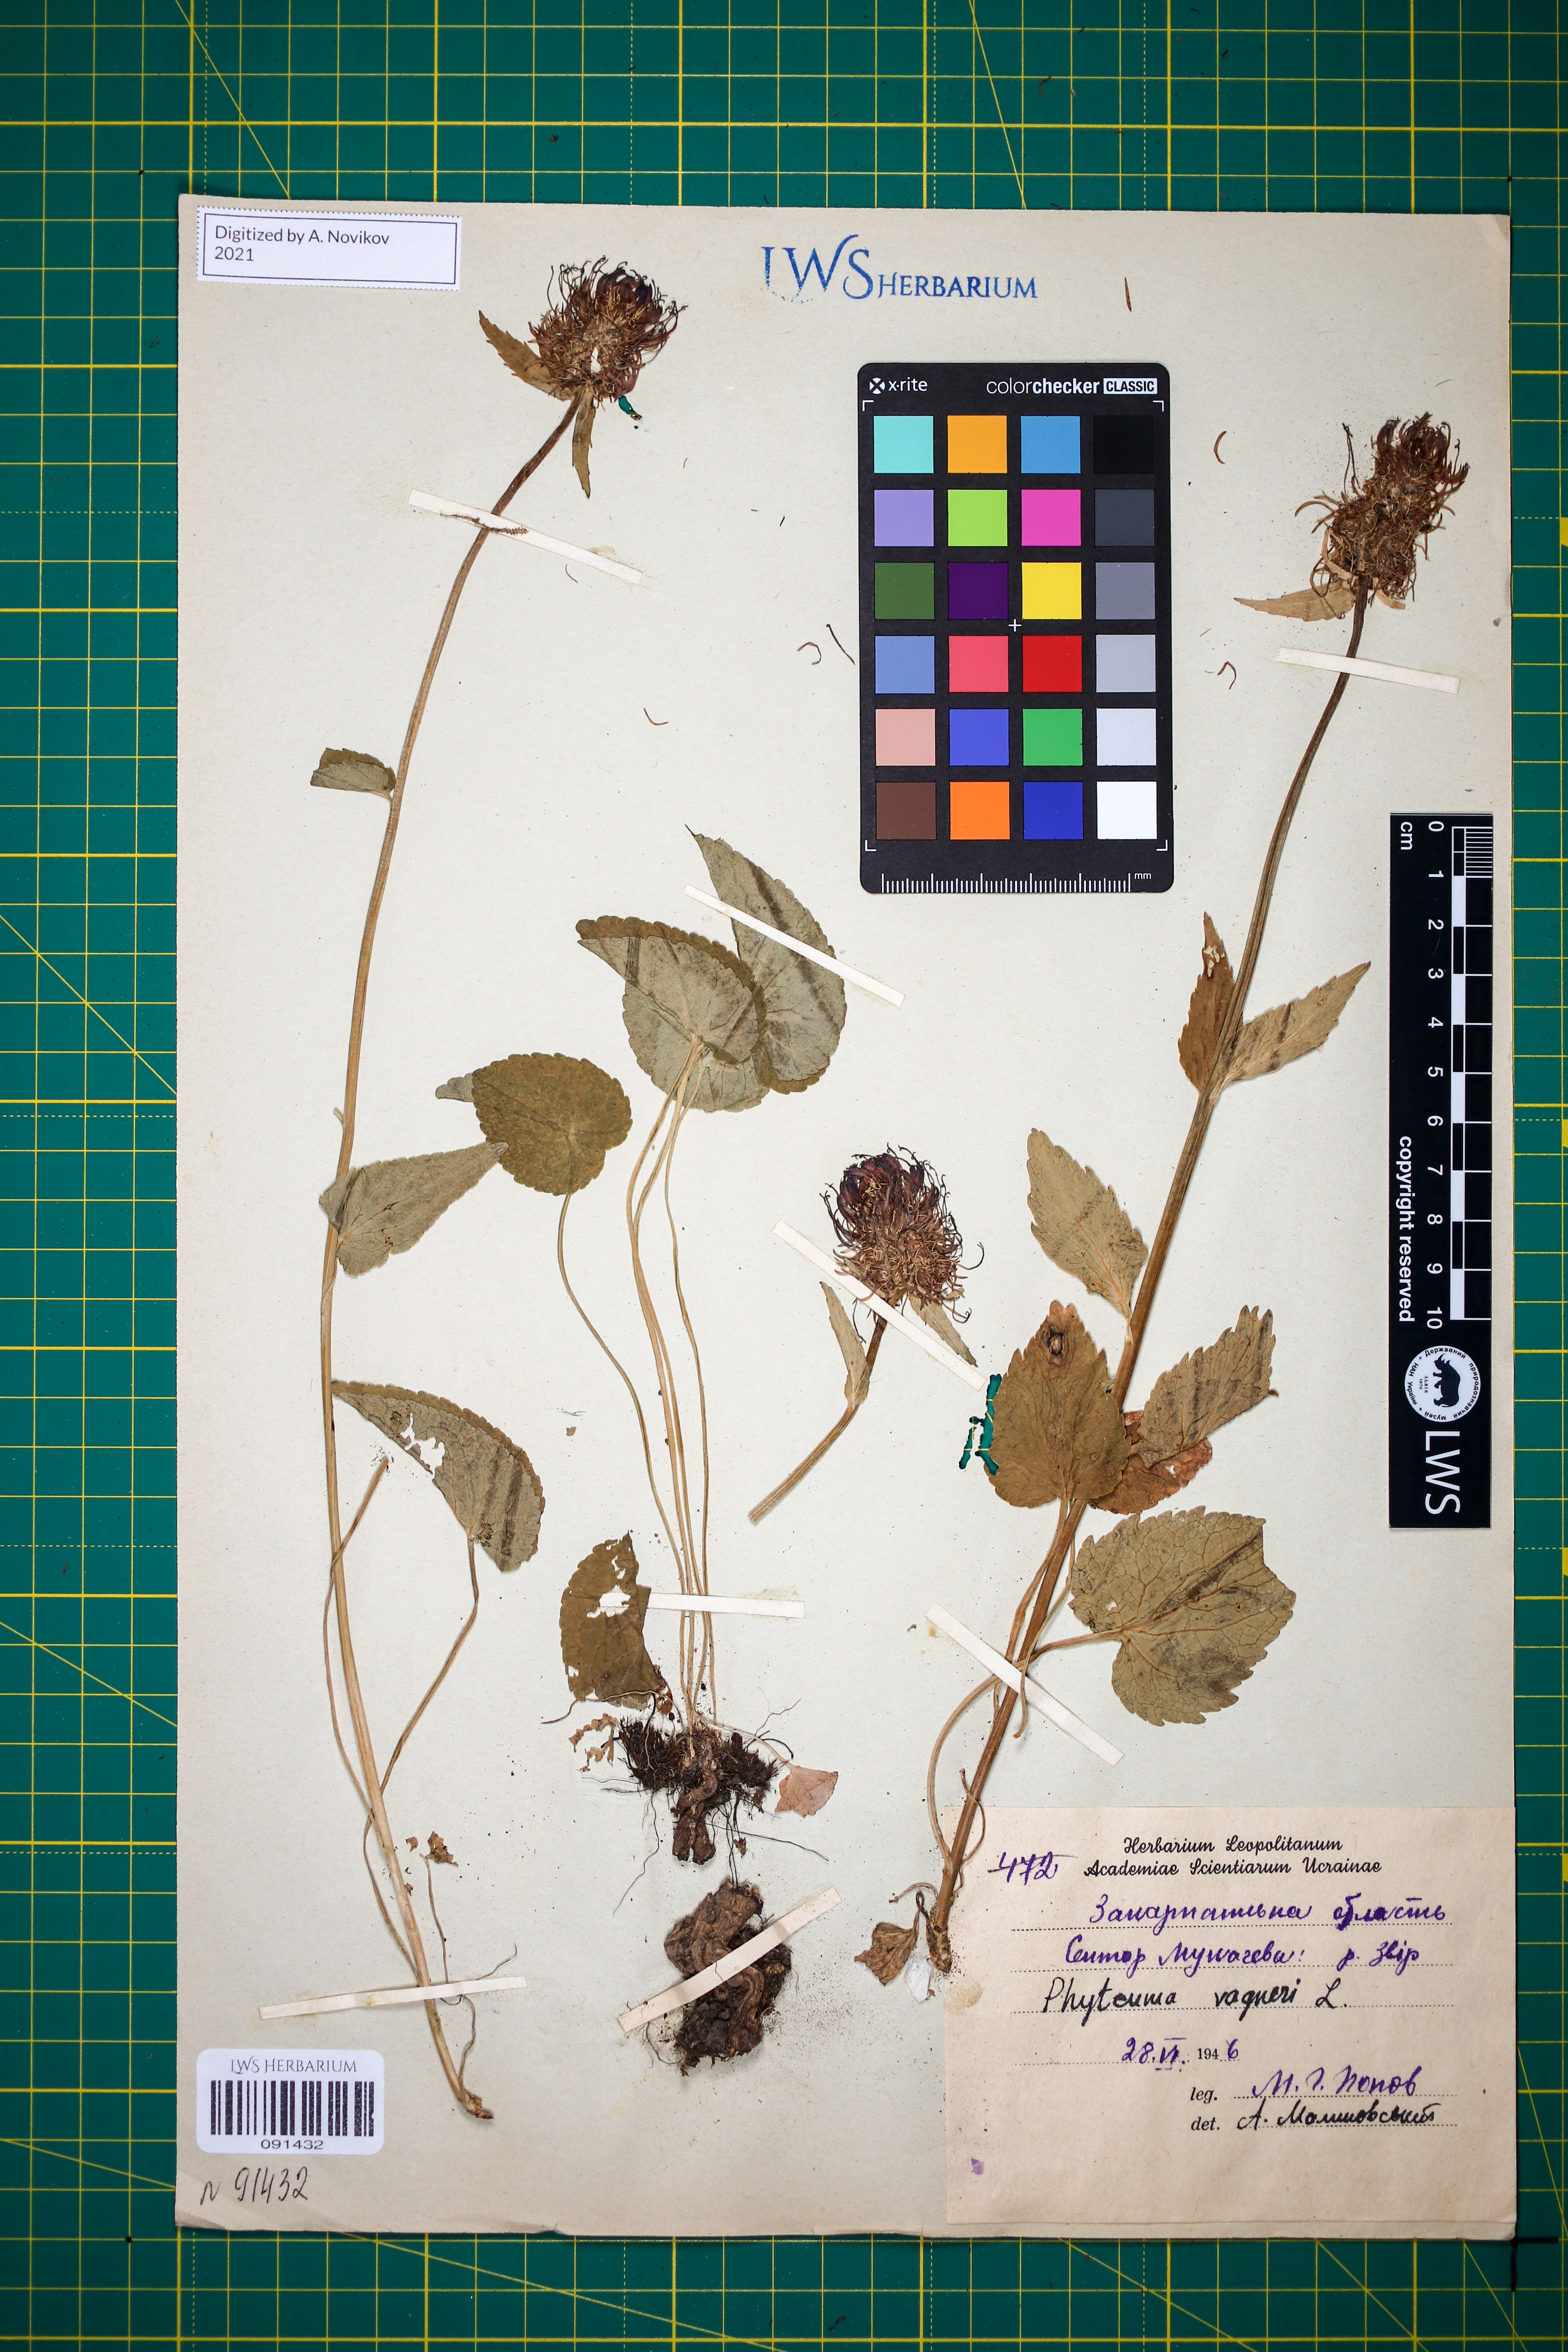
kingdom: Plantae
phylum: Tracheophyta
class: Magnoliopsida
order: Asterales
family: Campanulaceae
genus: Phyteuma
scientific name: Phyteuma vagneri
